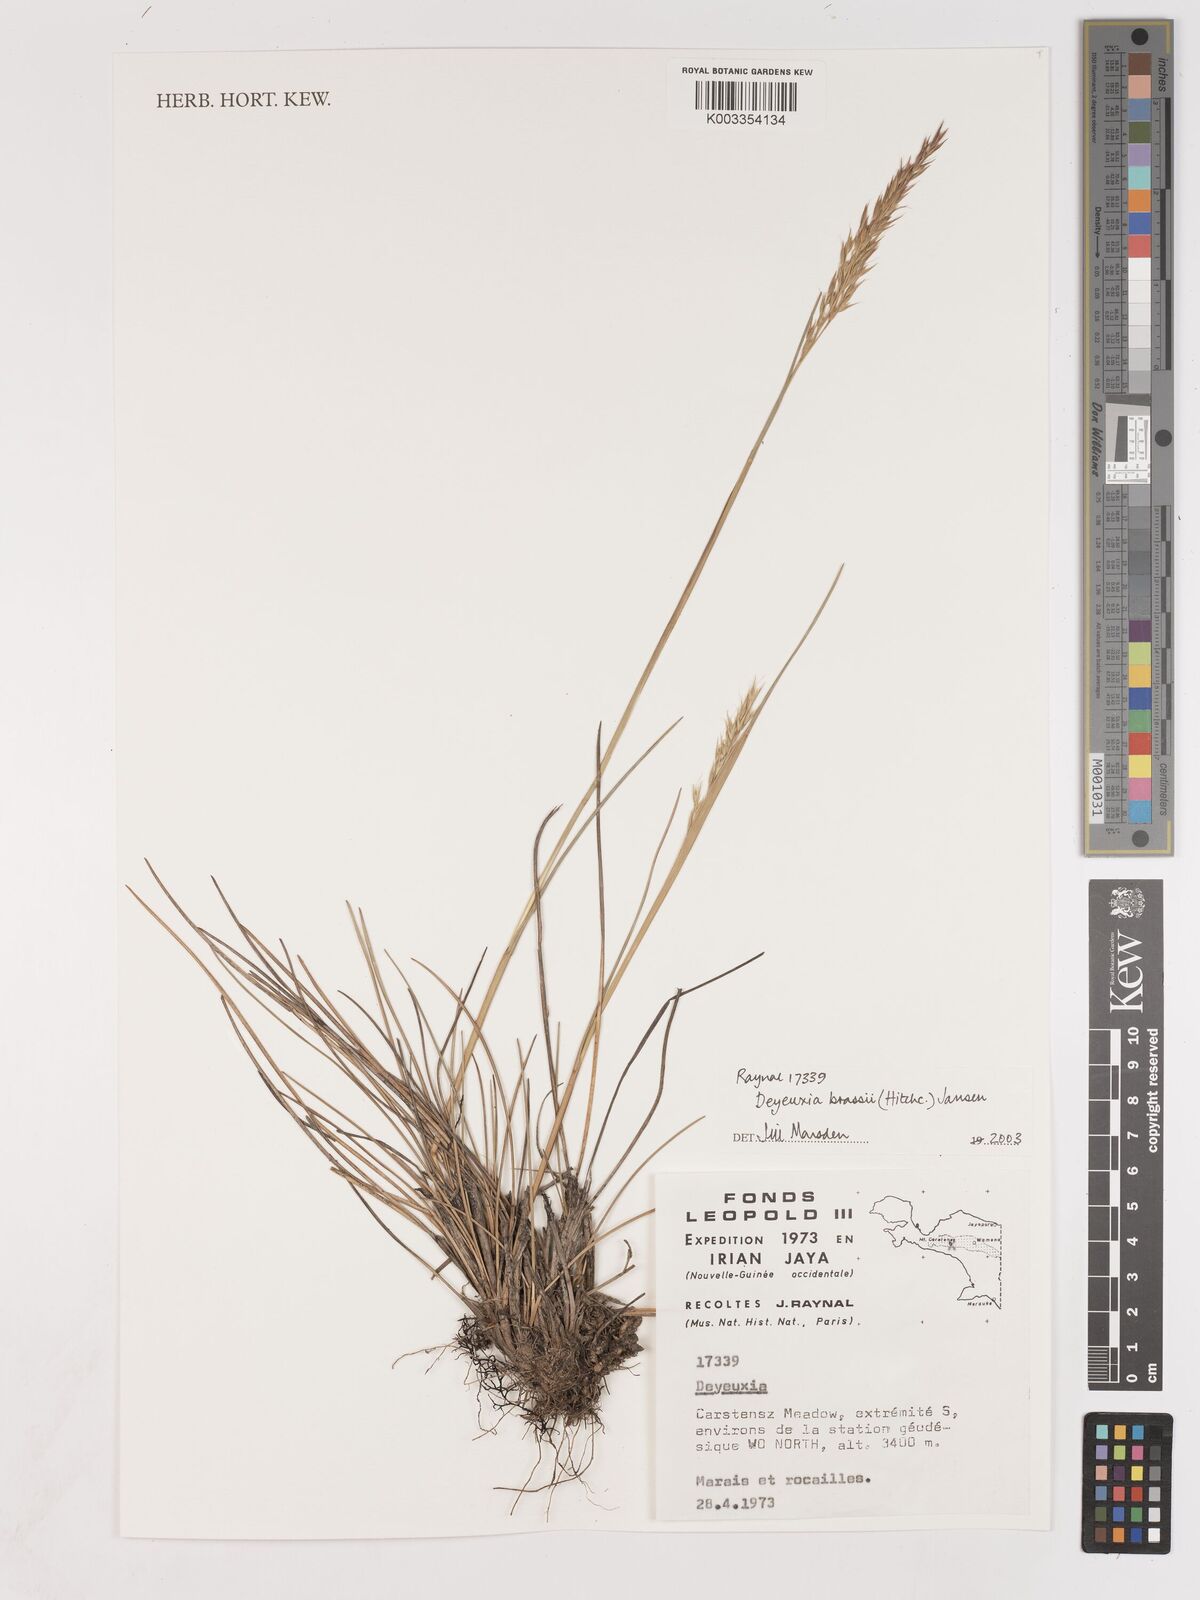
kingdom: Plantae
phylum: Tracheophyta
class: Liliopsida
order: Poales
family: Poaceae
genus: Calamagrostis
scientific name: Calamagrostis brassii
